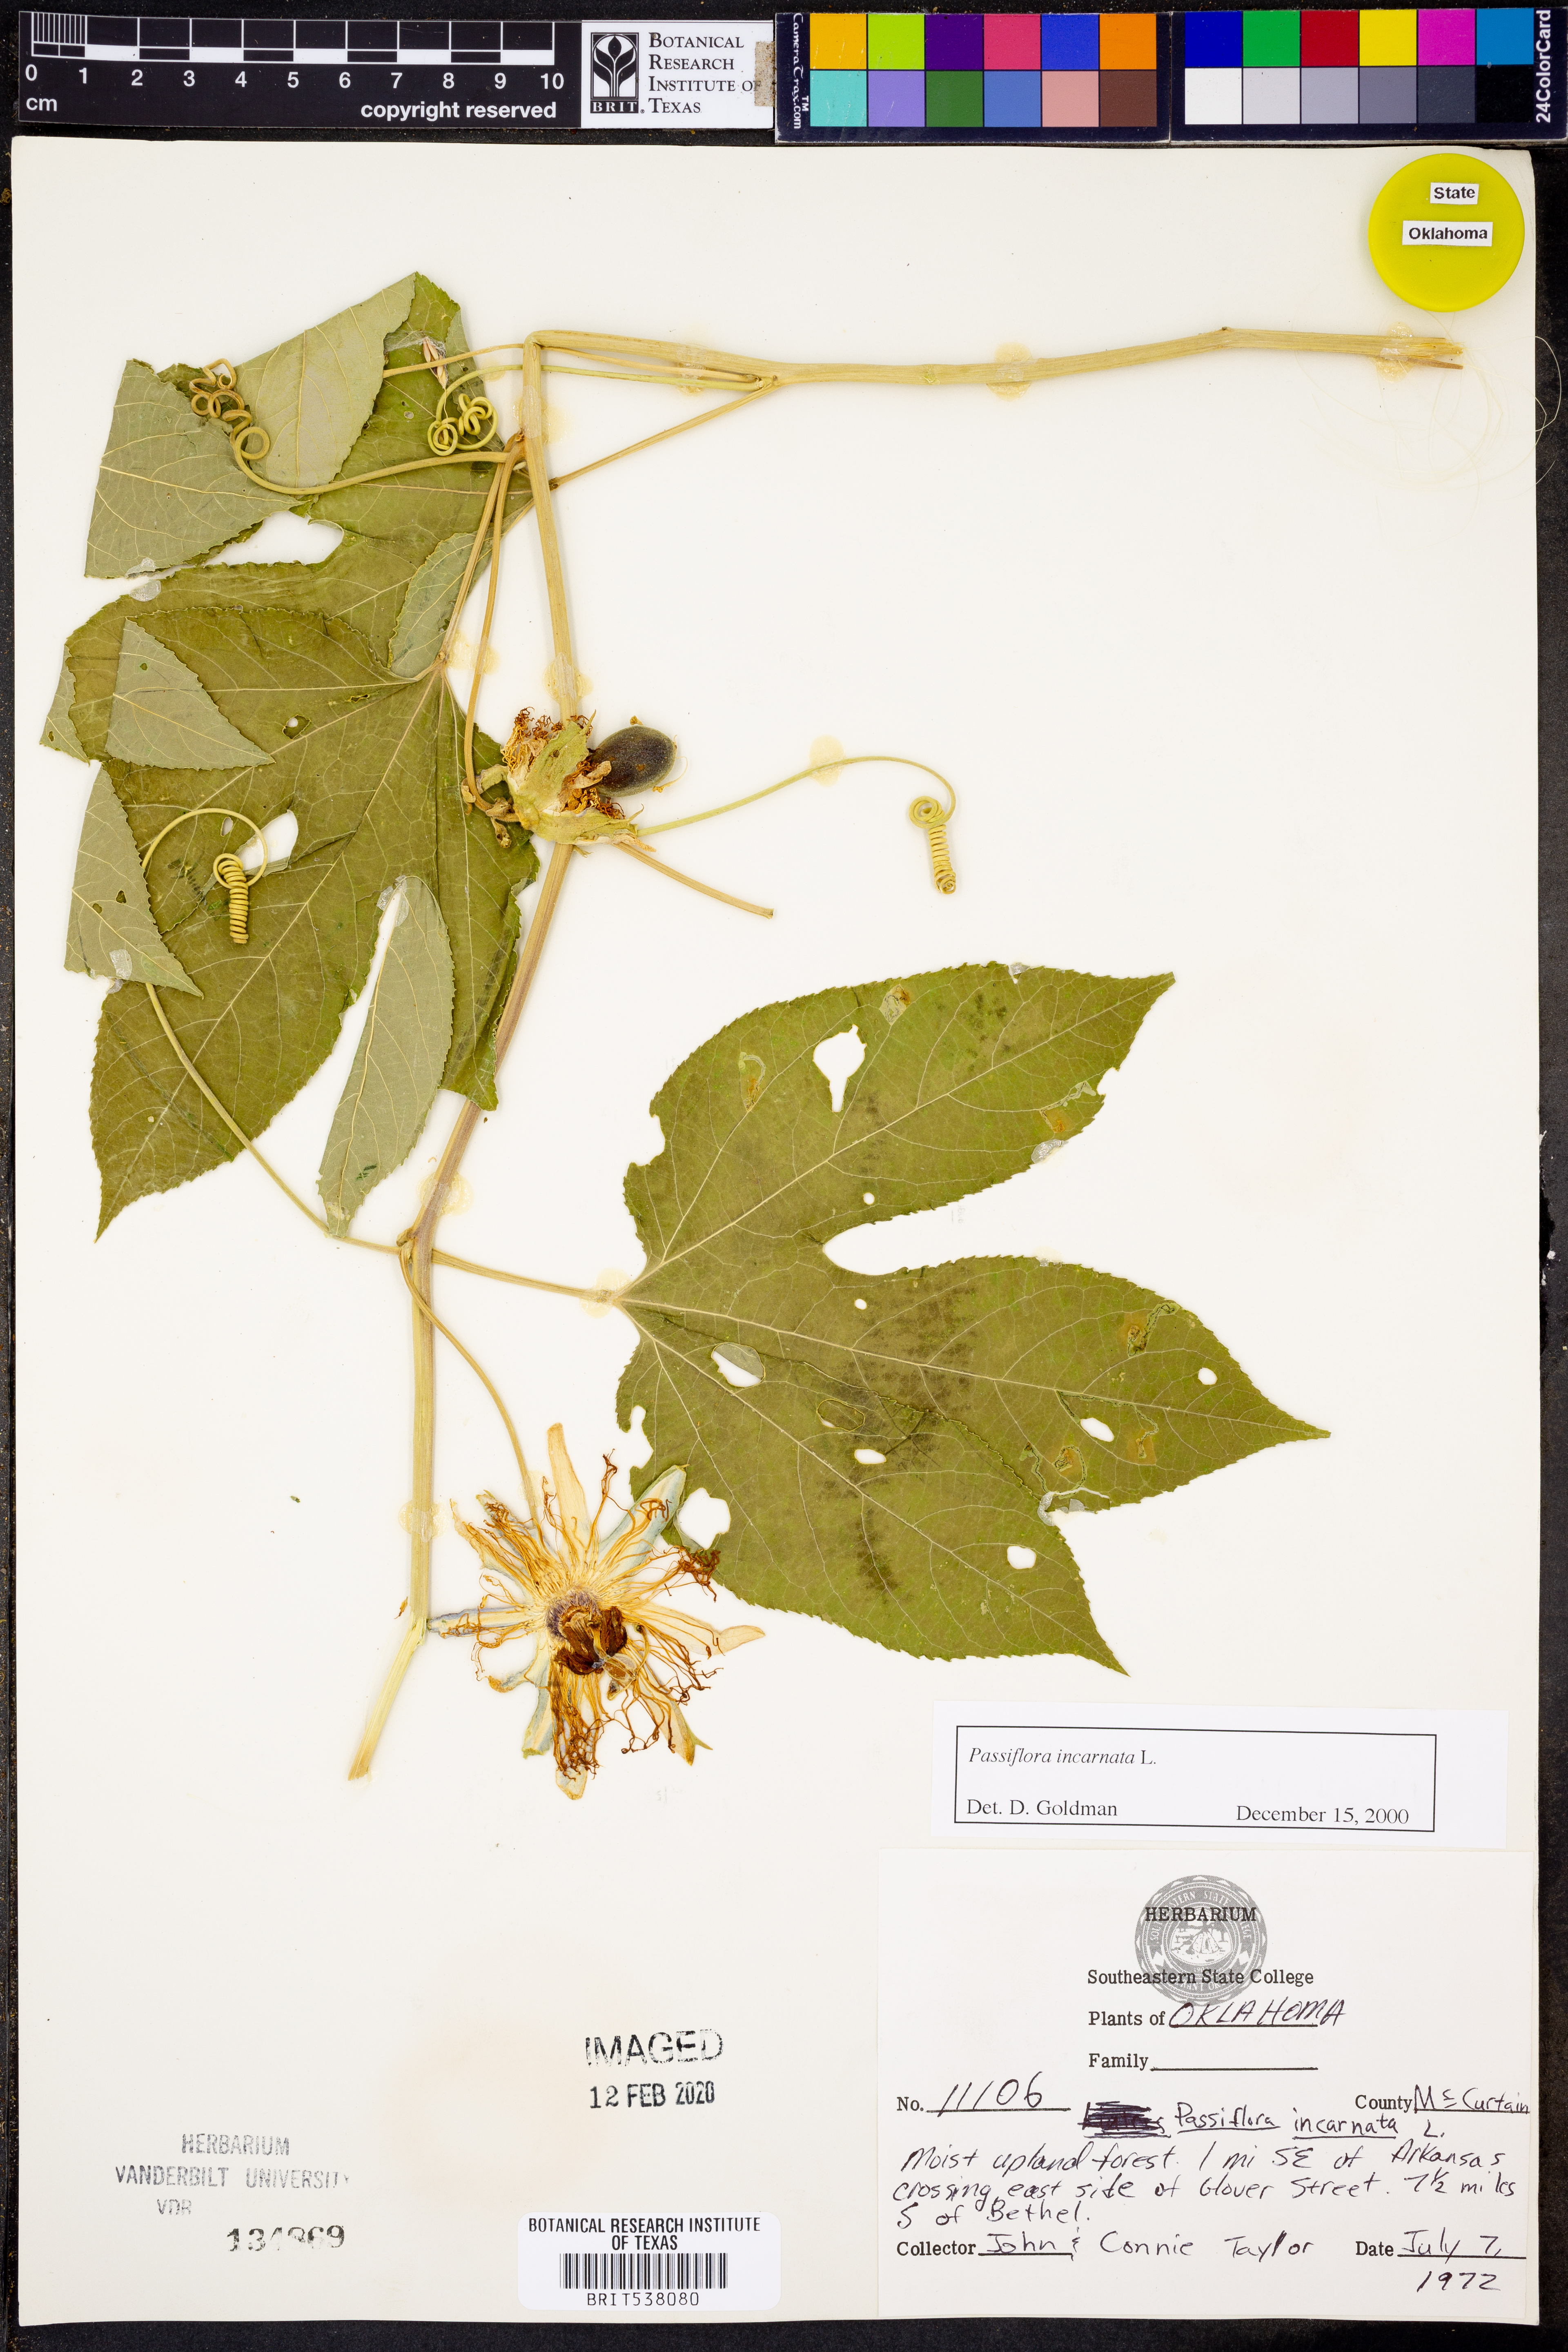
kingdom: Plantae
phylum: Tracheophyta
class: Magnoliopsida
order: Malpighiales
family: Passifloraceae
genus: Passiflora
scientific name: Passiflora incarnata
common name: Apricot-vine
